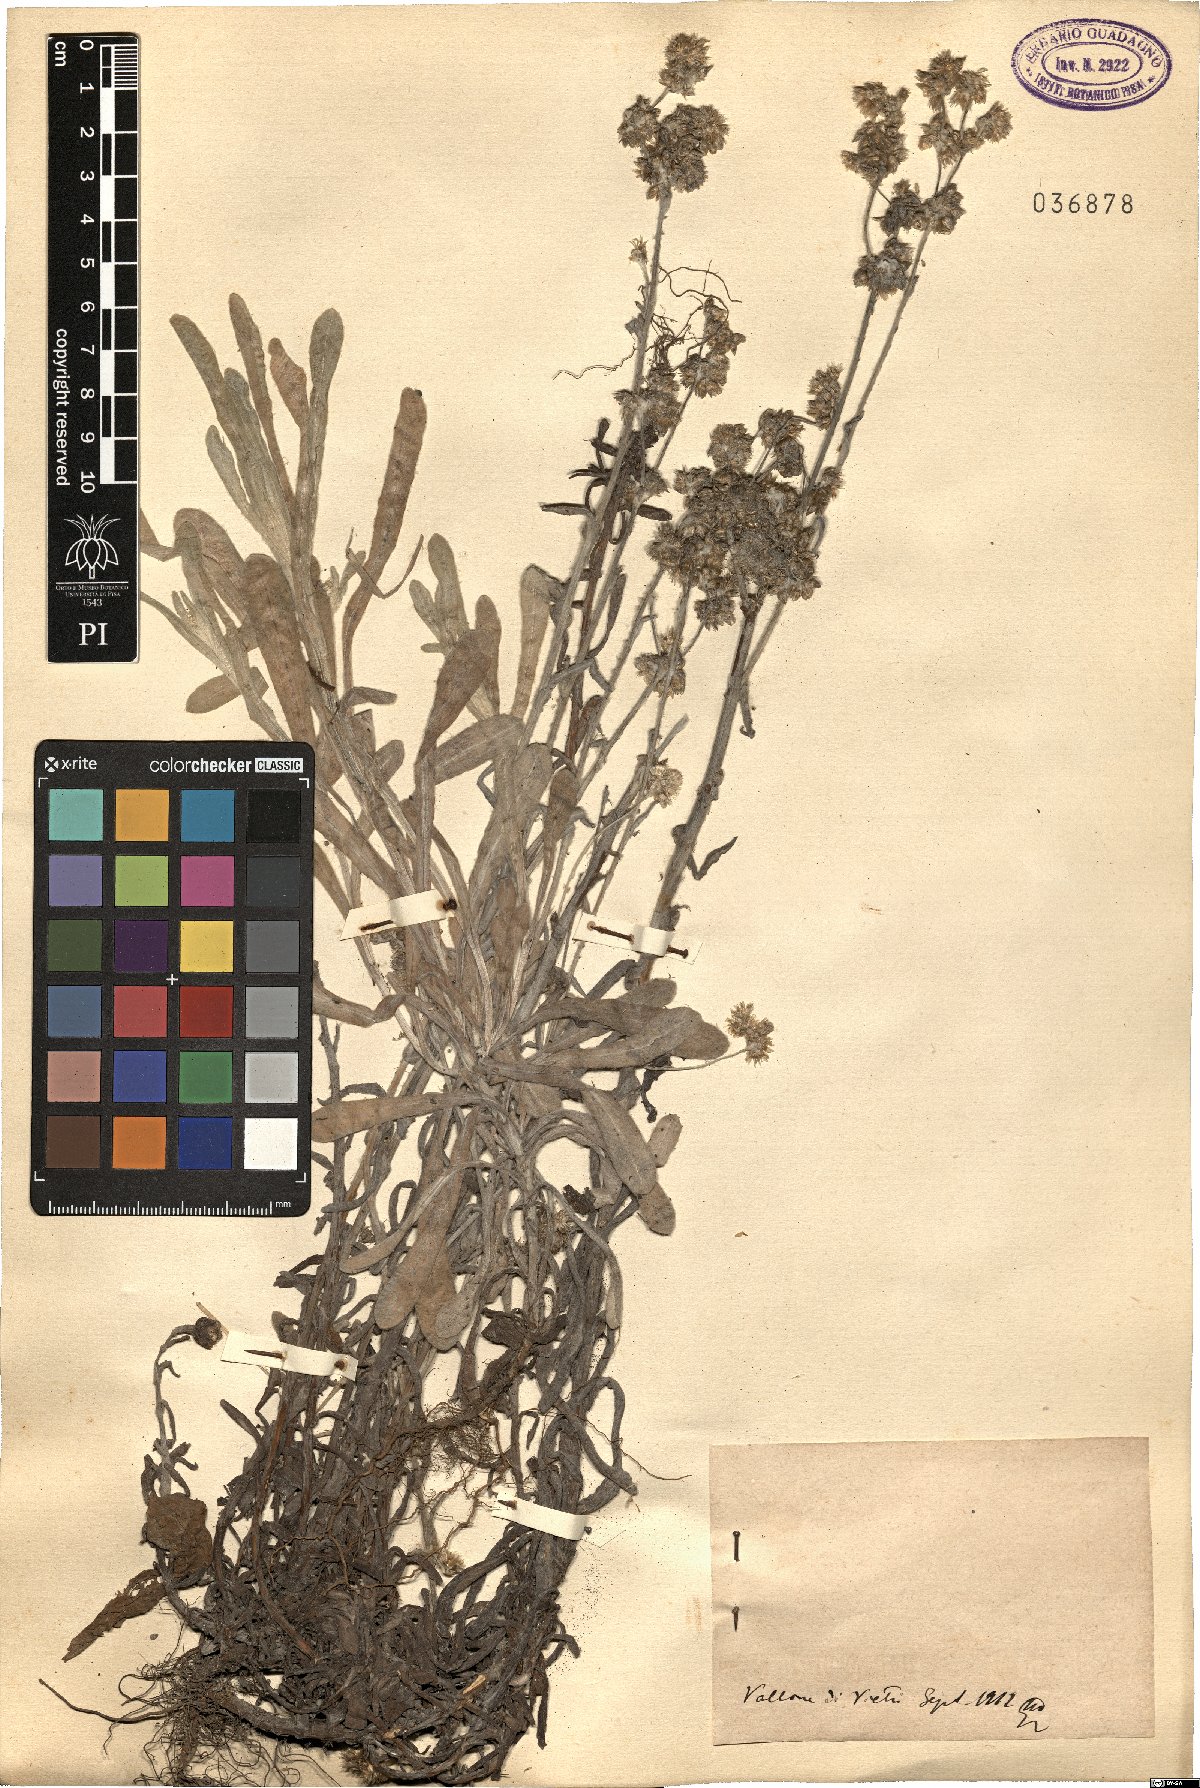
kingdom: Plantae
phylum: Tracheophyta
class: Magnoliopsida
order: Asterales
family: Asteraceae
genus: Gnaphalium
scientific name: Gnaphalium
